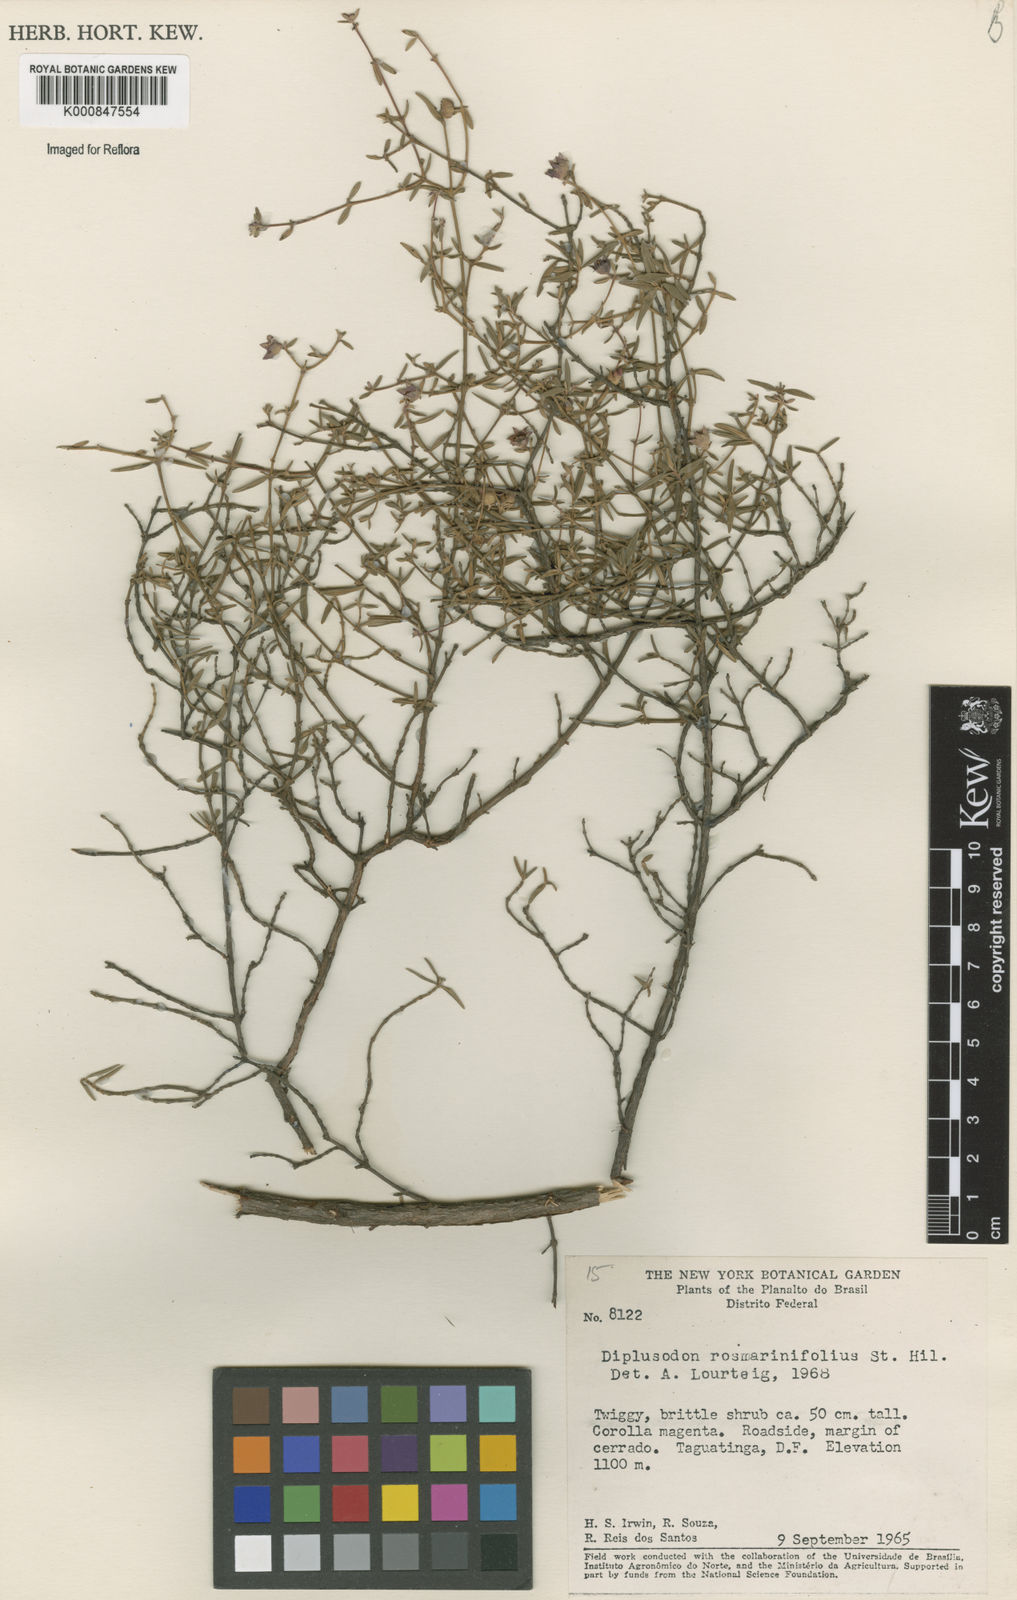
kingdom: Plantae
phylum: Tracheophyta
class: Magnoliopsida
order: Myrtales
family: Lythraceae
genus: Diplusodon
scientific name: Diplusodon rosmarinifolius
